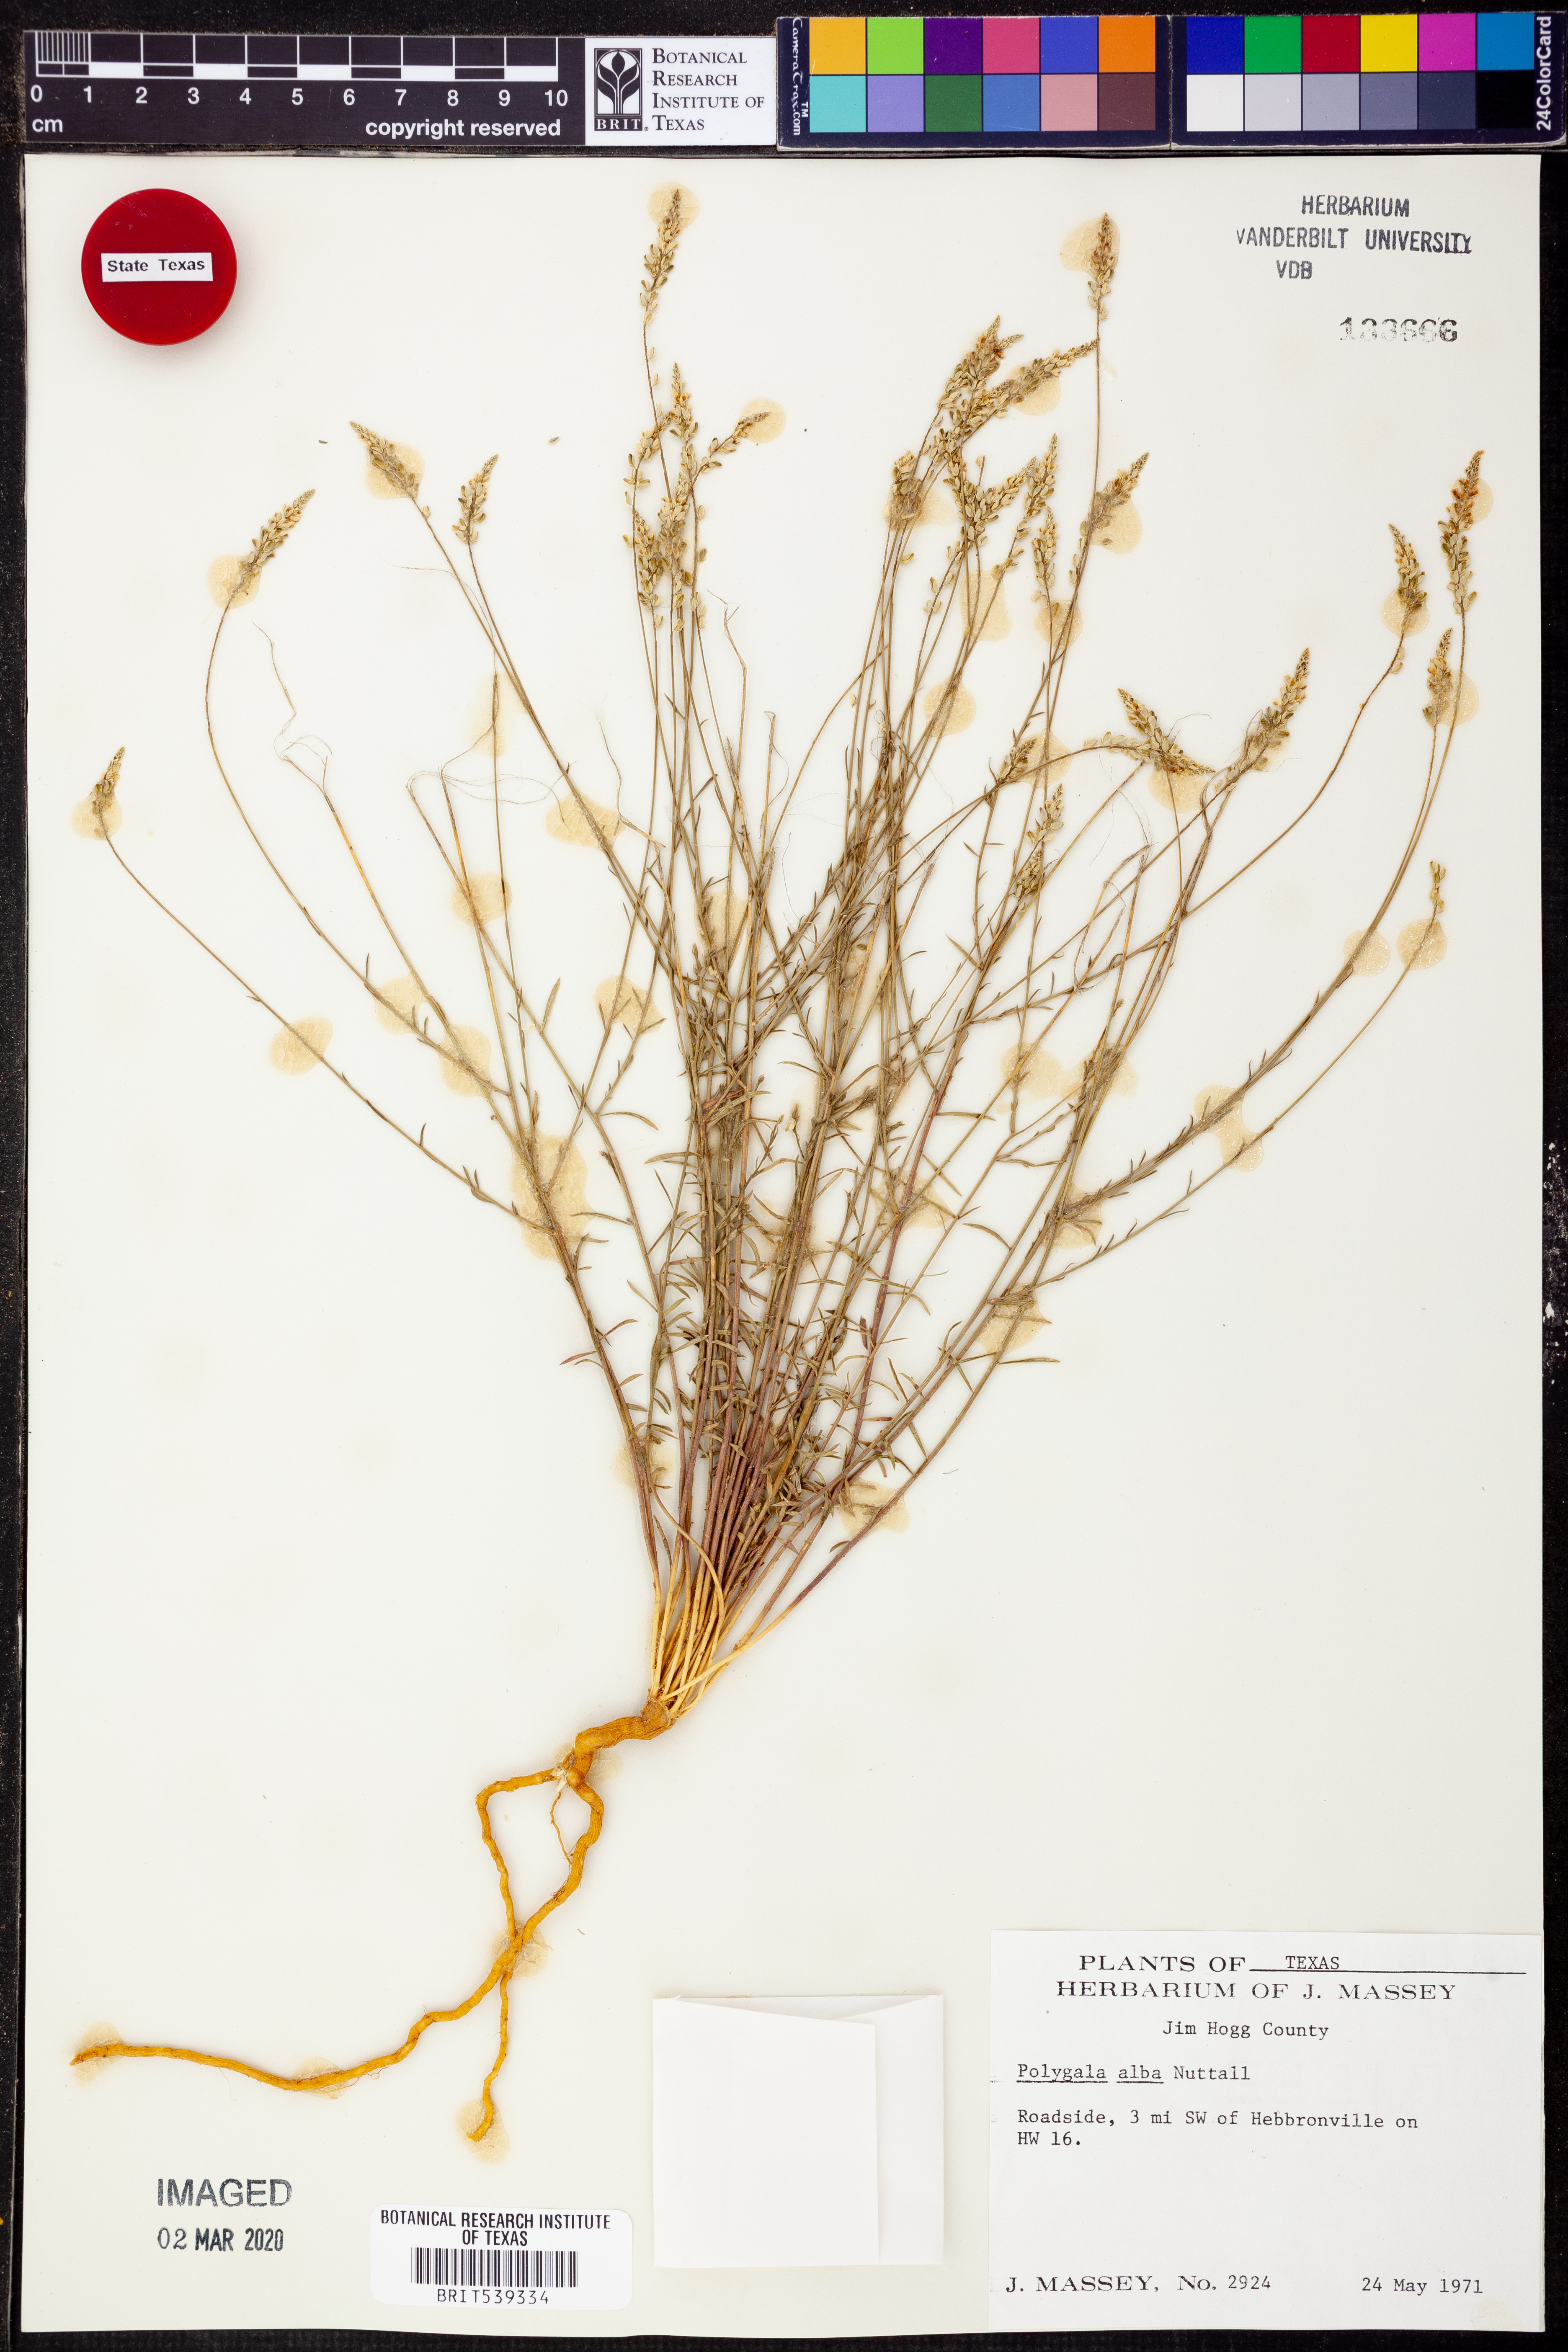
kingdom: Plantae
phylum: Tracheophyta
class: Magnoliopsida
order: Fabales
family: Polygalaceae
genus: Polygala
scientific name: Polygala alba
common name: White milkwort
